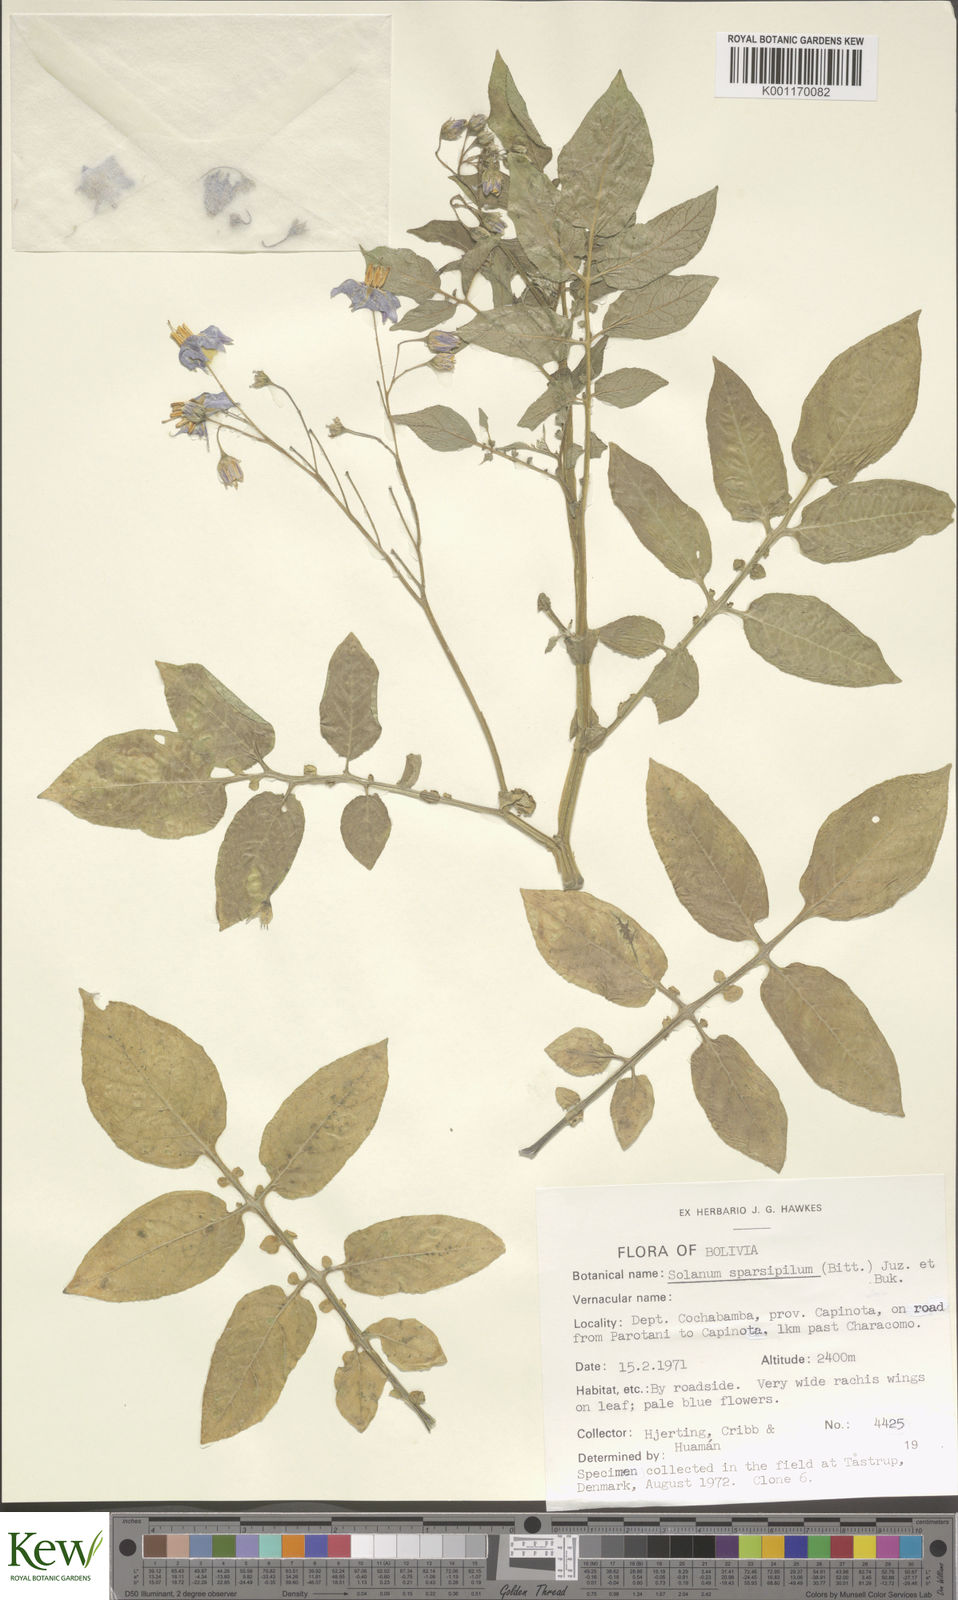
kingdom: Plantae
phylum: Tracheophyta
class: Magnoliopsida
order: Solanales
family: Solanaceae
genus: Solanum
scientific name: Solanum brevicaule
